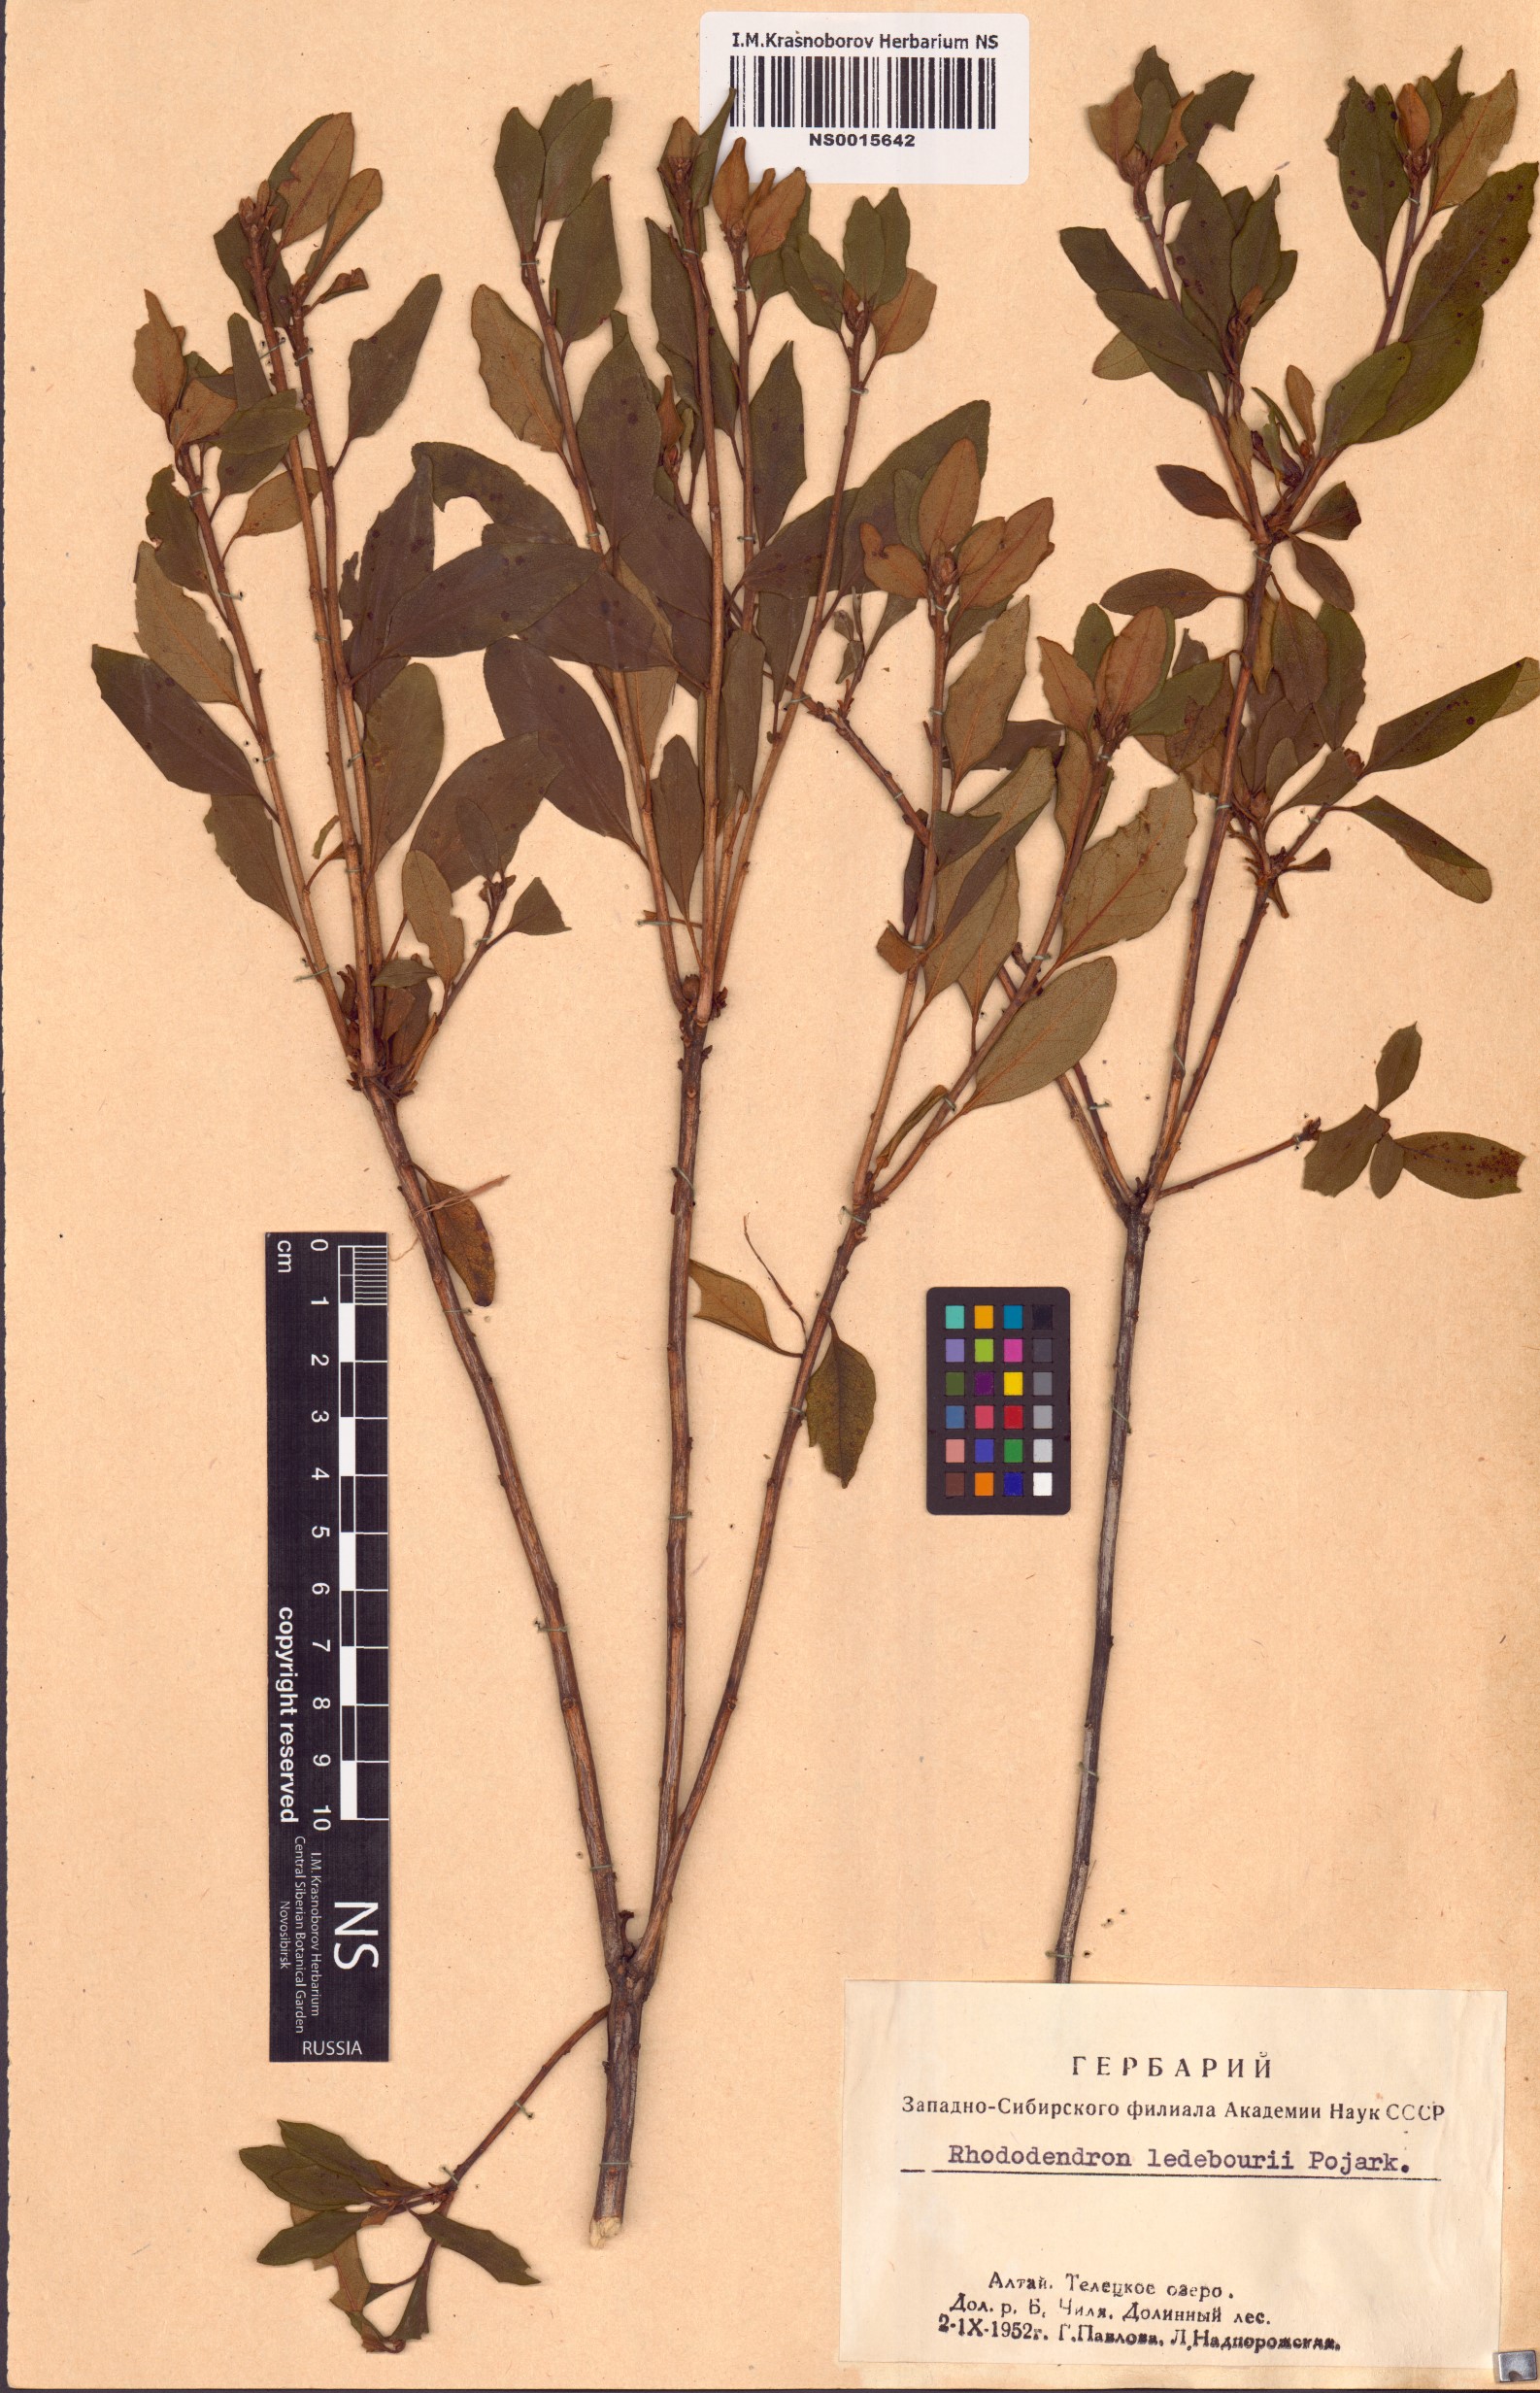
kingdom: Plantae
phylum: Tracheophyta
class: Magnoliopsida
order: Ericales
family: Ericaceae
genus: Rhododendron
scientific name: Rhododendron dauricum
